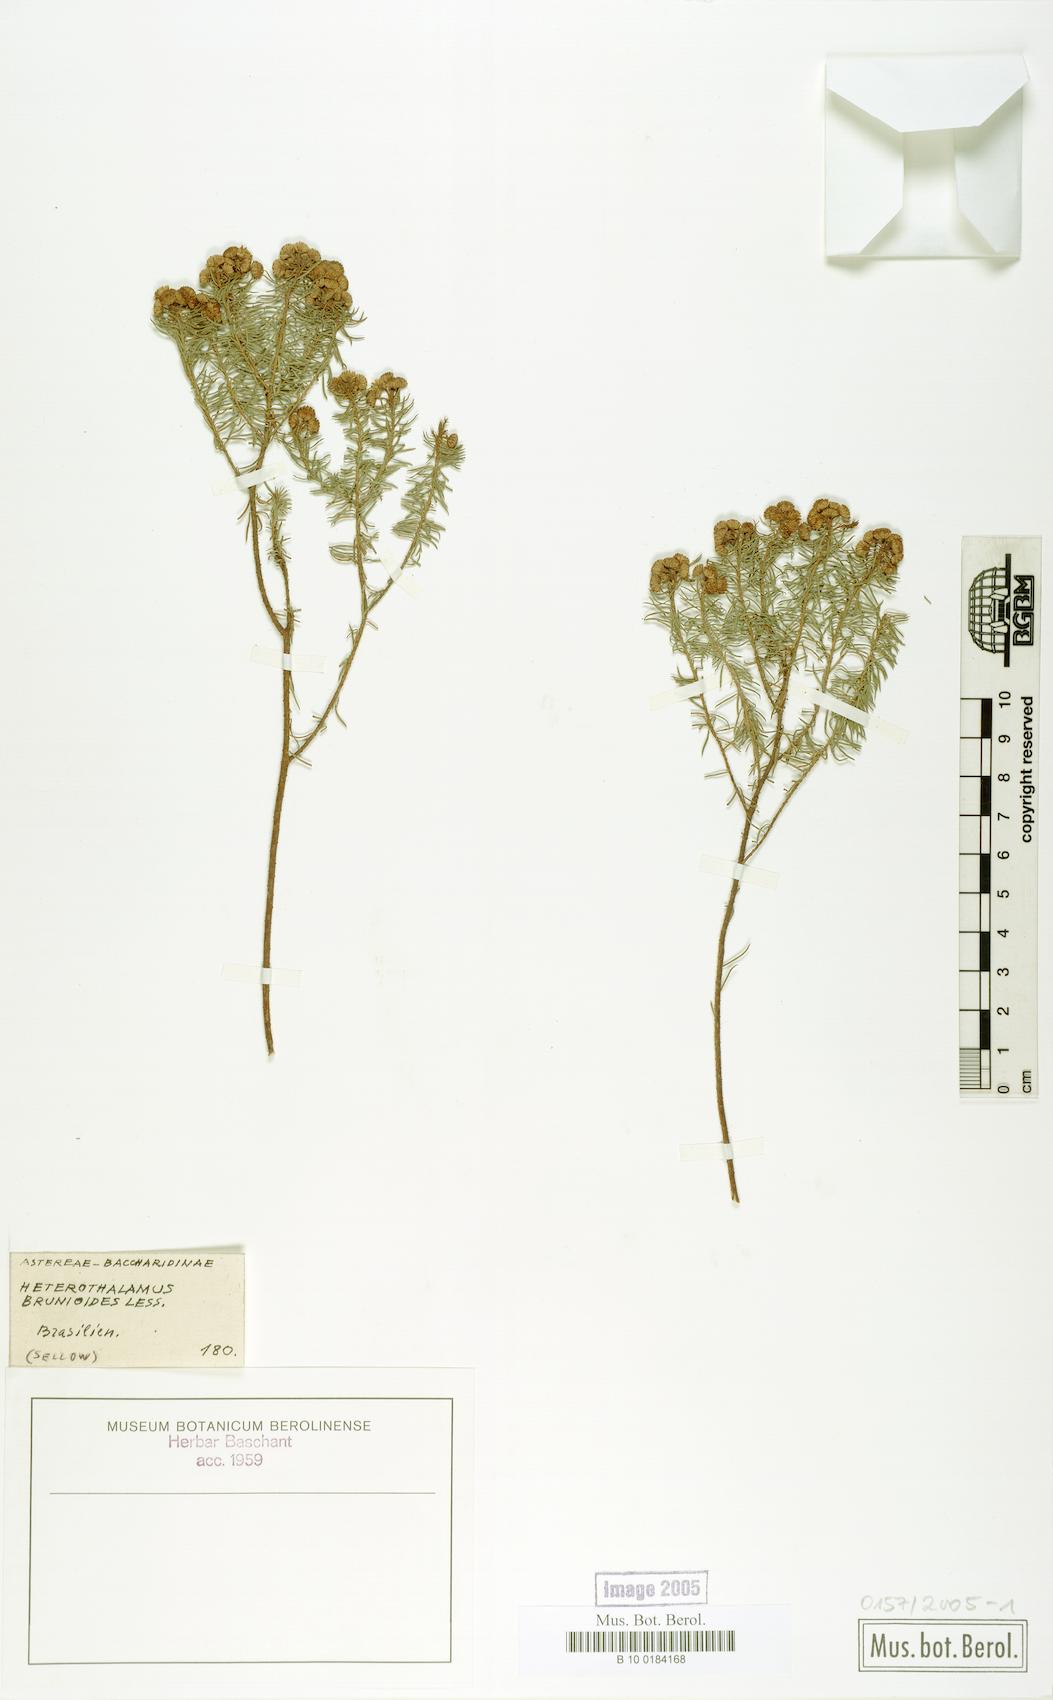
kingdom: Plantae
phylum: Tracheophyta
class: Magnoliopsida
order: Asterales
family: Asteraceae
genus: Baccharis
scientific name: Baccharis aliena
